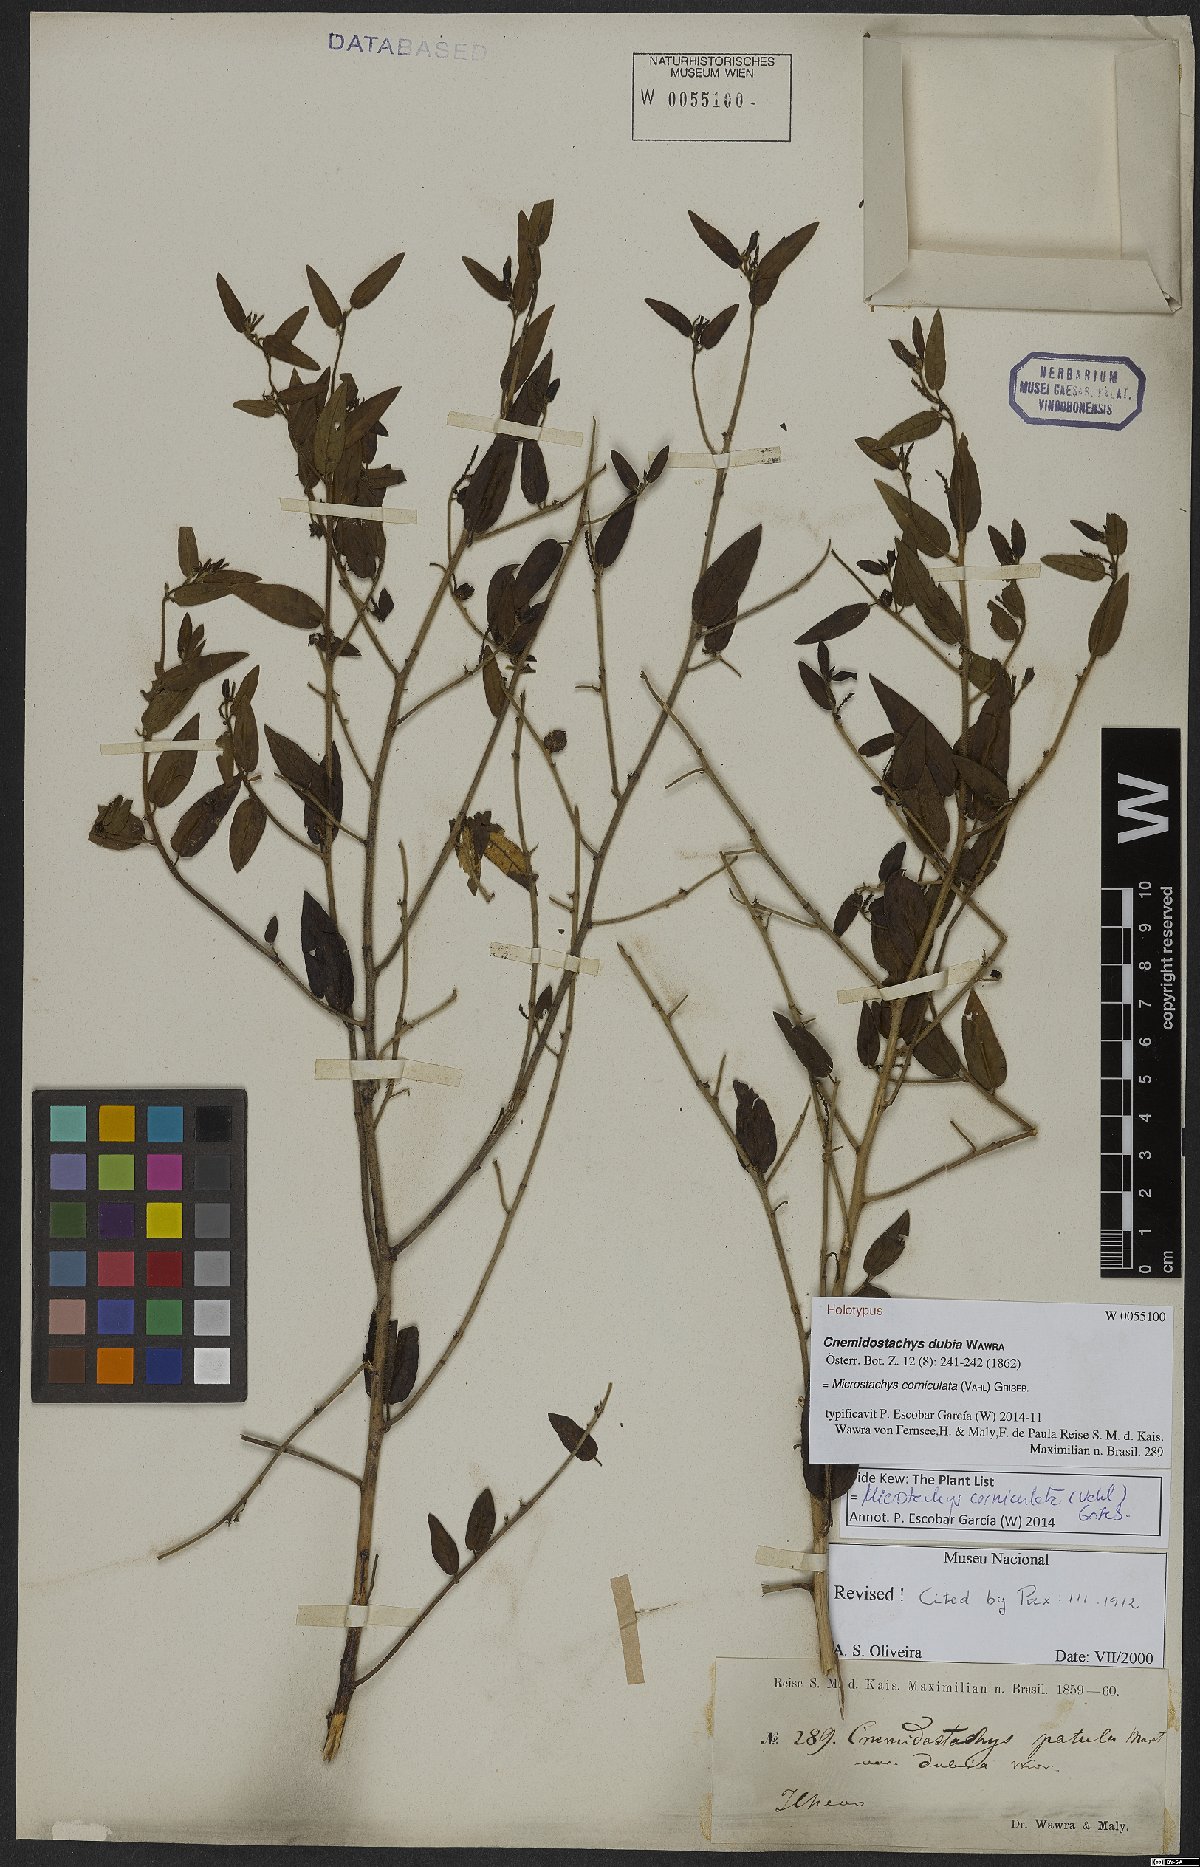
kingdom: Plantae
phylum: Tracheophyta
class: Magnoliopsida
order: Malpighiales
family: Euphorbiaceae
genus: Microstachys
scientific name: Microstachys corniculata
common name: Hato tejas
